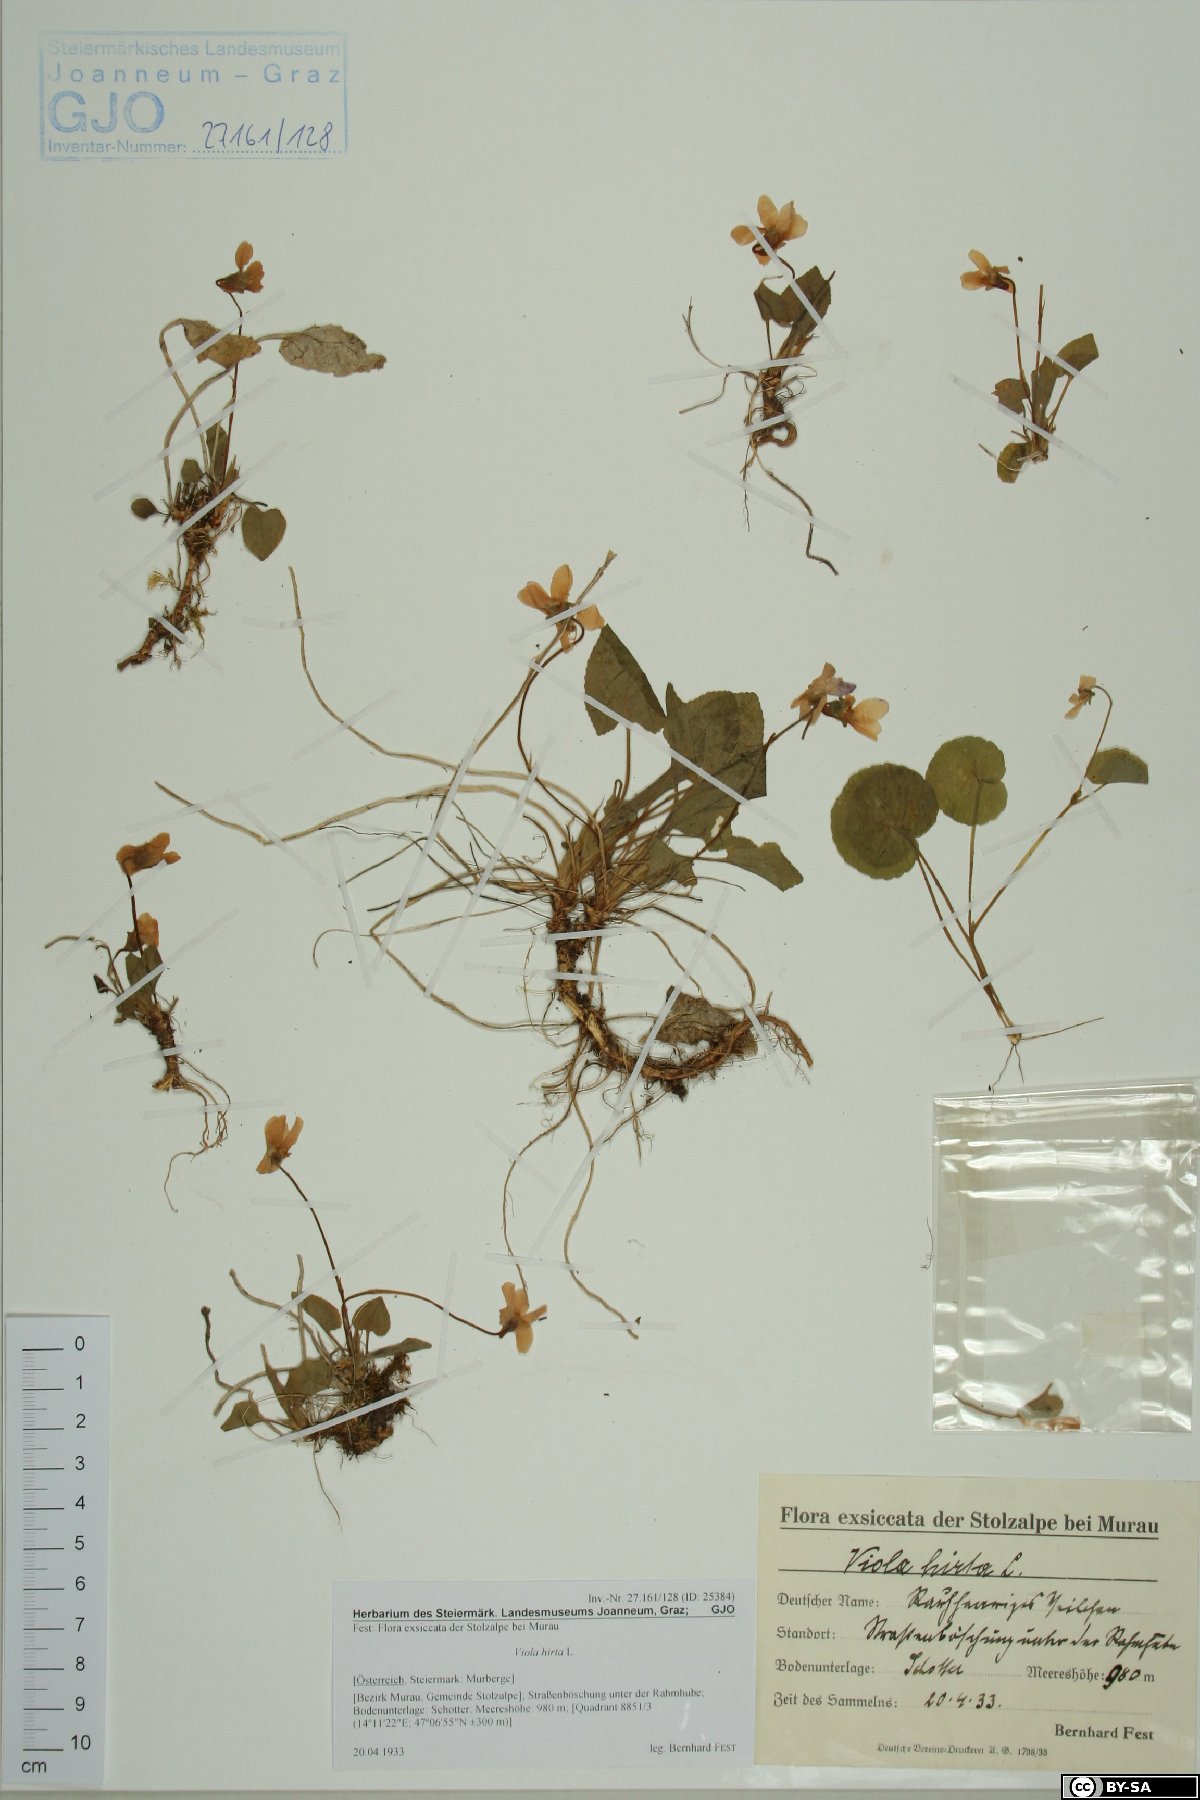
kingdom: Plantae
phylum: Tracheophyta
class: Magnoliopsida
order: Malpighiales
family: Violaceae
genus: Viola
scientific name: Viola hirta
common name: Hairy violet
